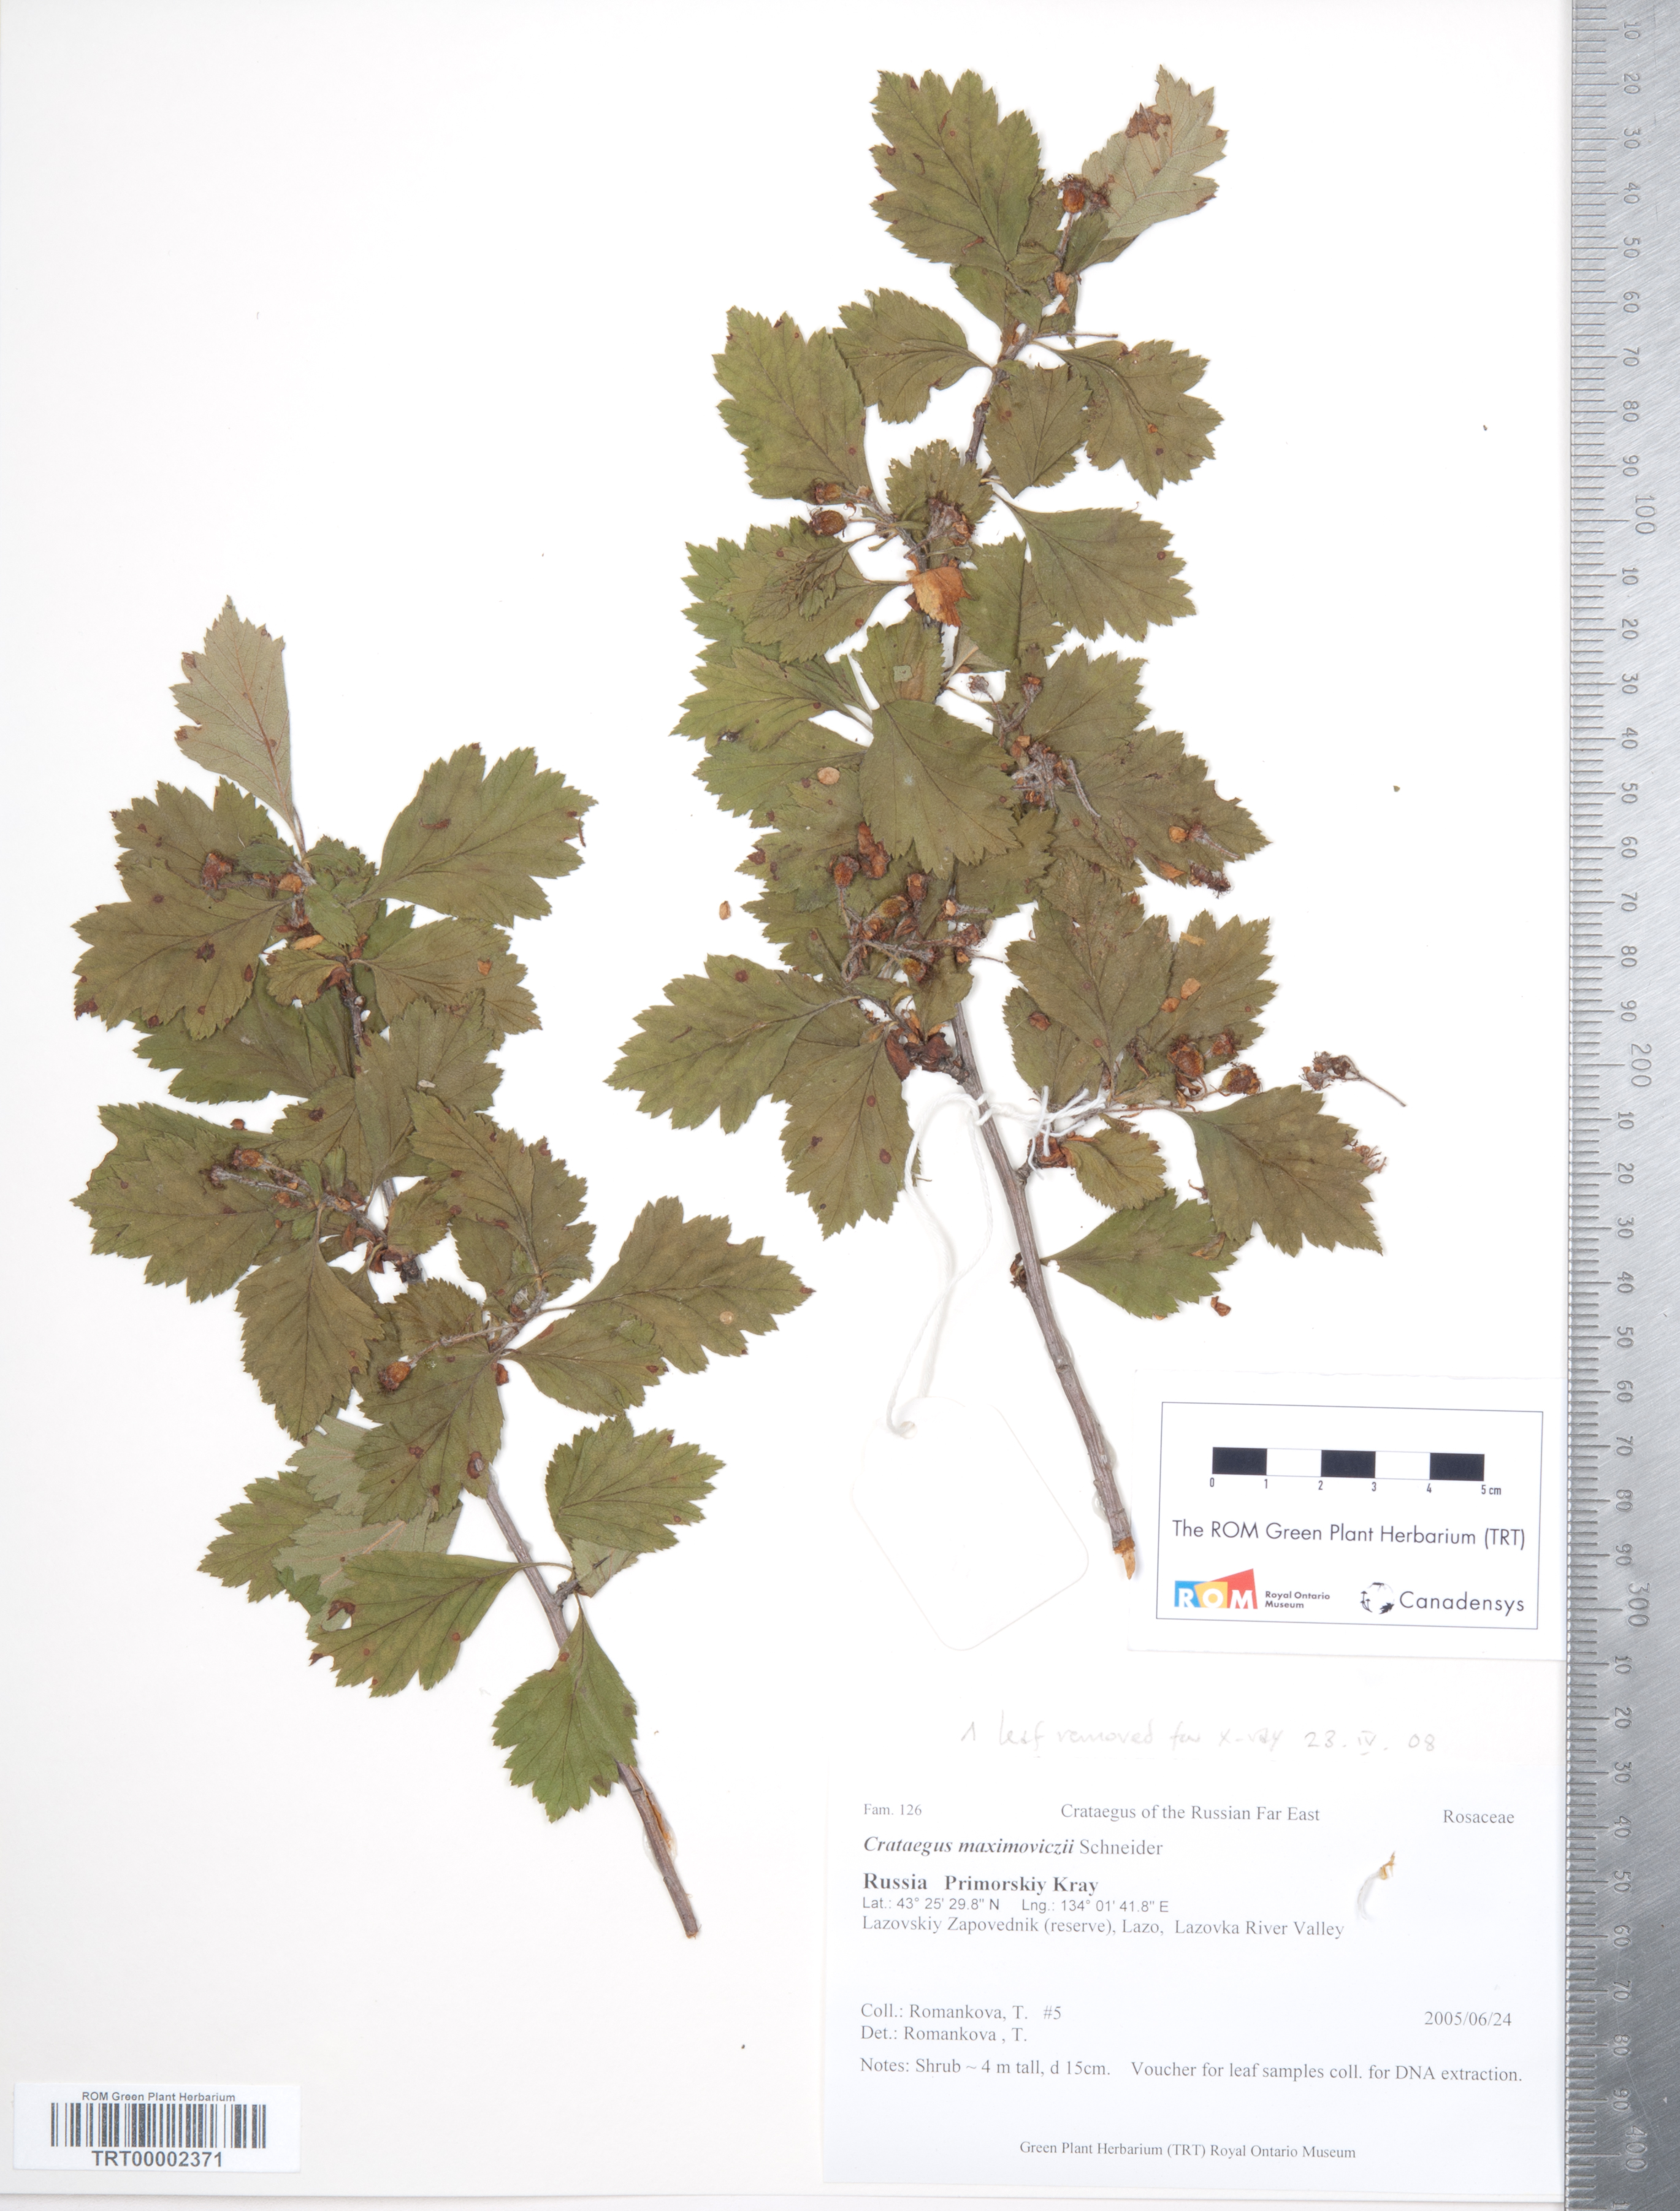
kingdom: Plantae
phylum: Tracheophyta
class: Magnoliopsida
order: Rosales
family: Rosaceae
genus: Crataegus
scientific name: Crataegus maximowiczii
